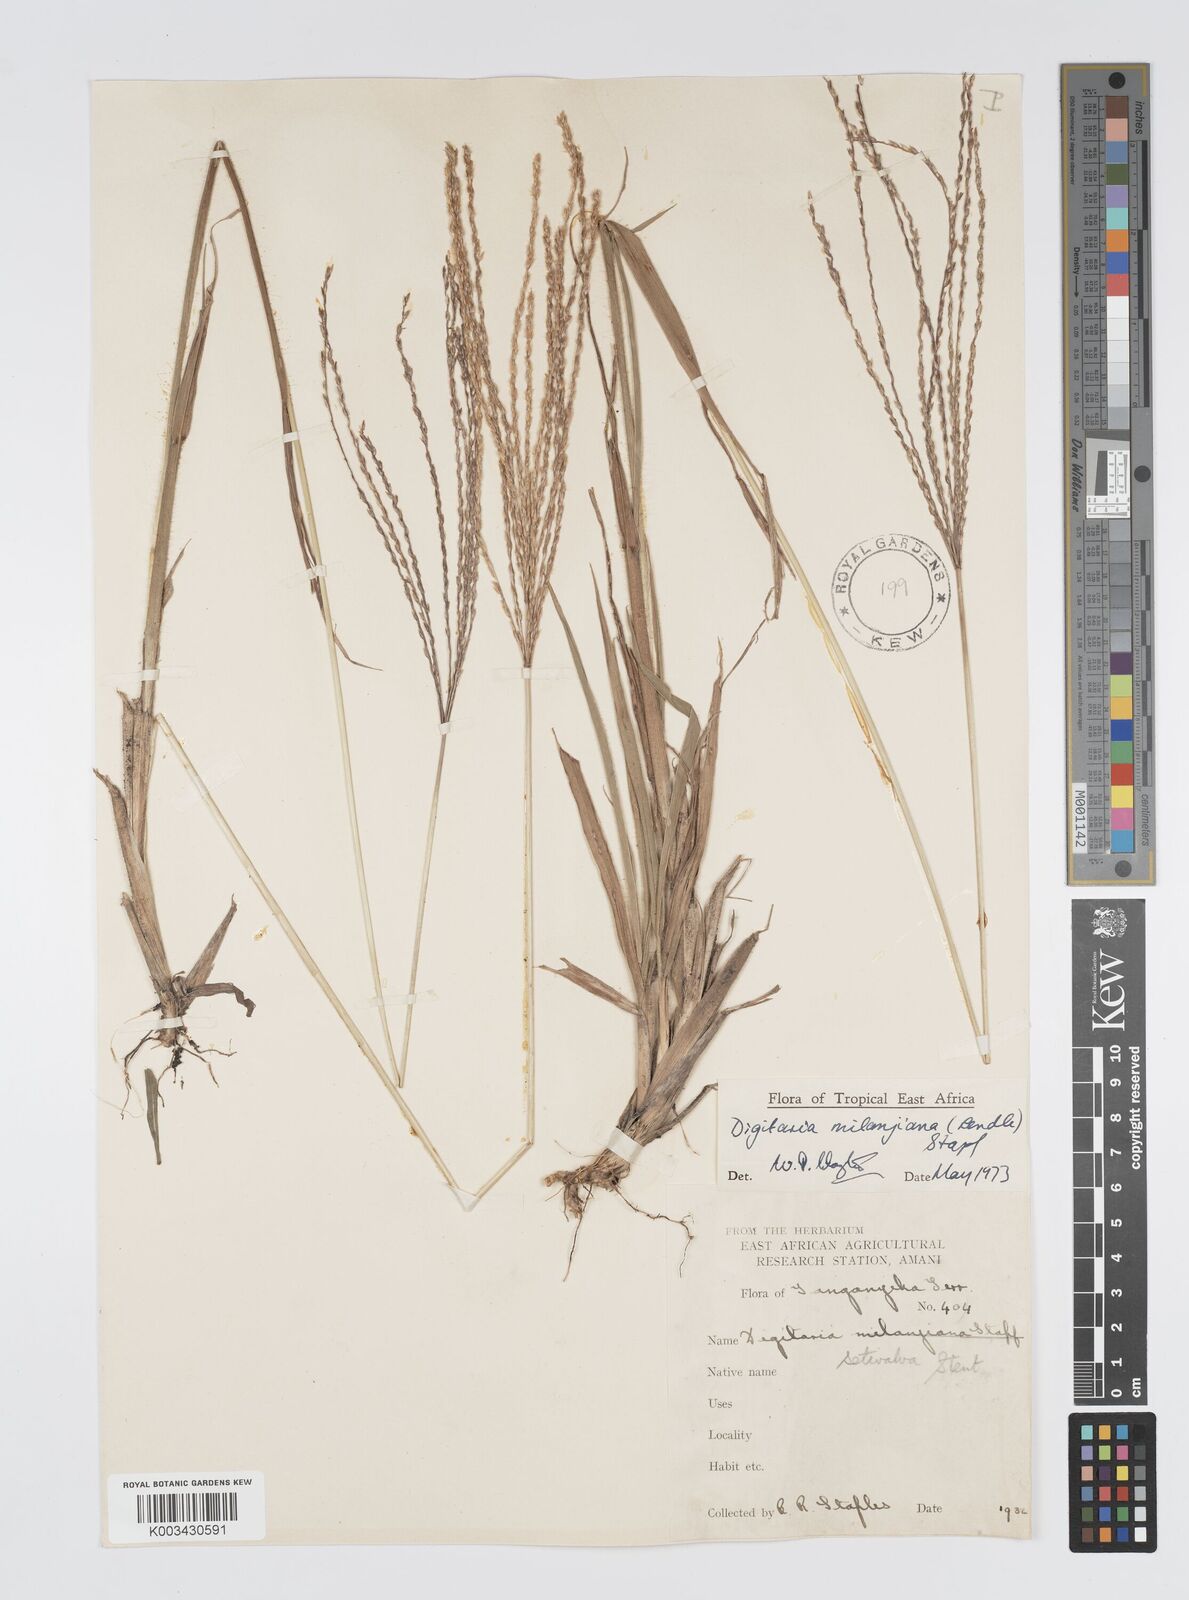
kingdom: Plantae
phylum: Tracheophyta
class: Liliopsida
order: Poales
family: Poaceae
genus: Digitaria
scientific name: Digitaria milanjiana
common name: Madagascar crabgrass
